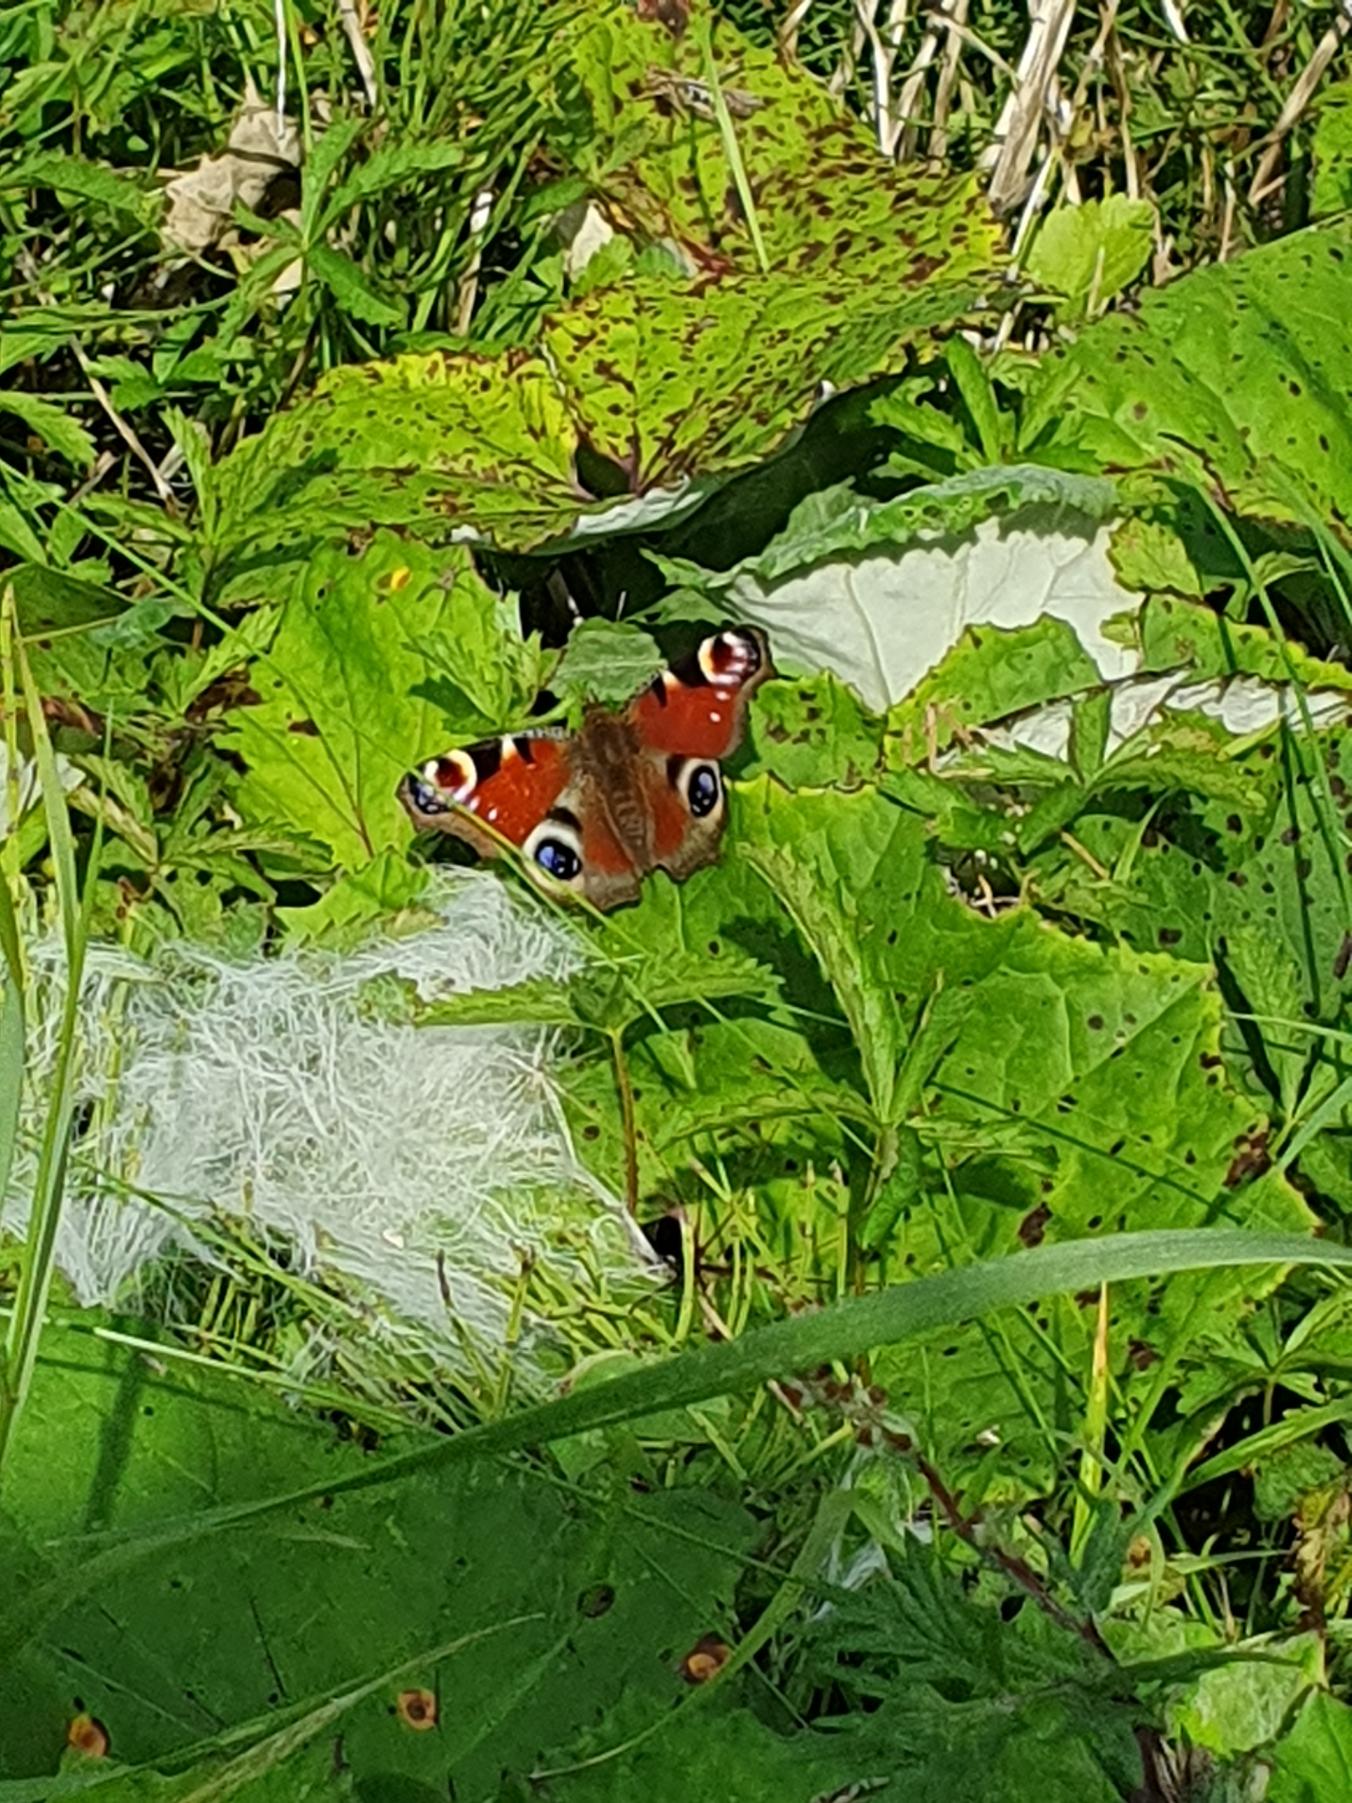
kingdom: Animalia
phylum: Arthropoda
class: Insecta
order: Lepidoptera
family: Nymphalidae
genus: Aglais
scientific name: Aglais io
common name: Dagpåfugleøje
